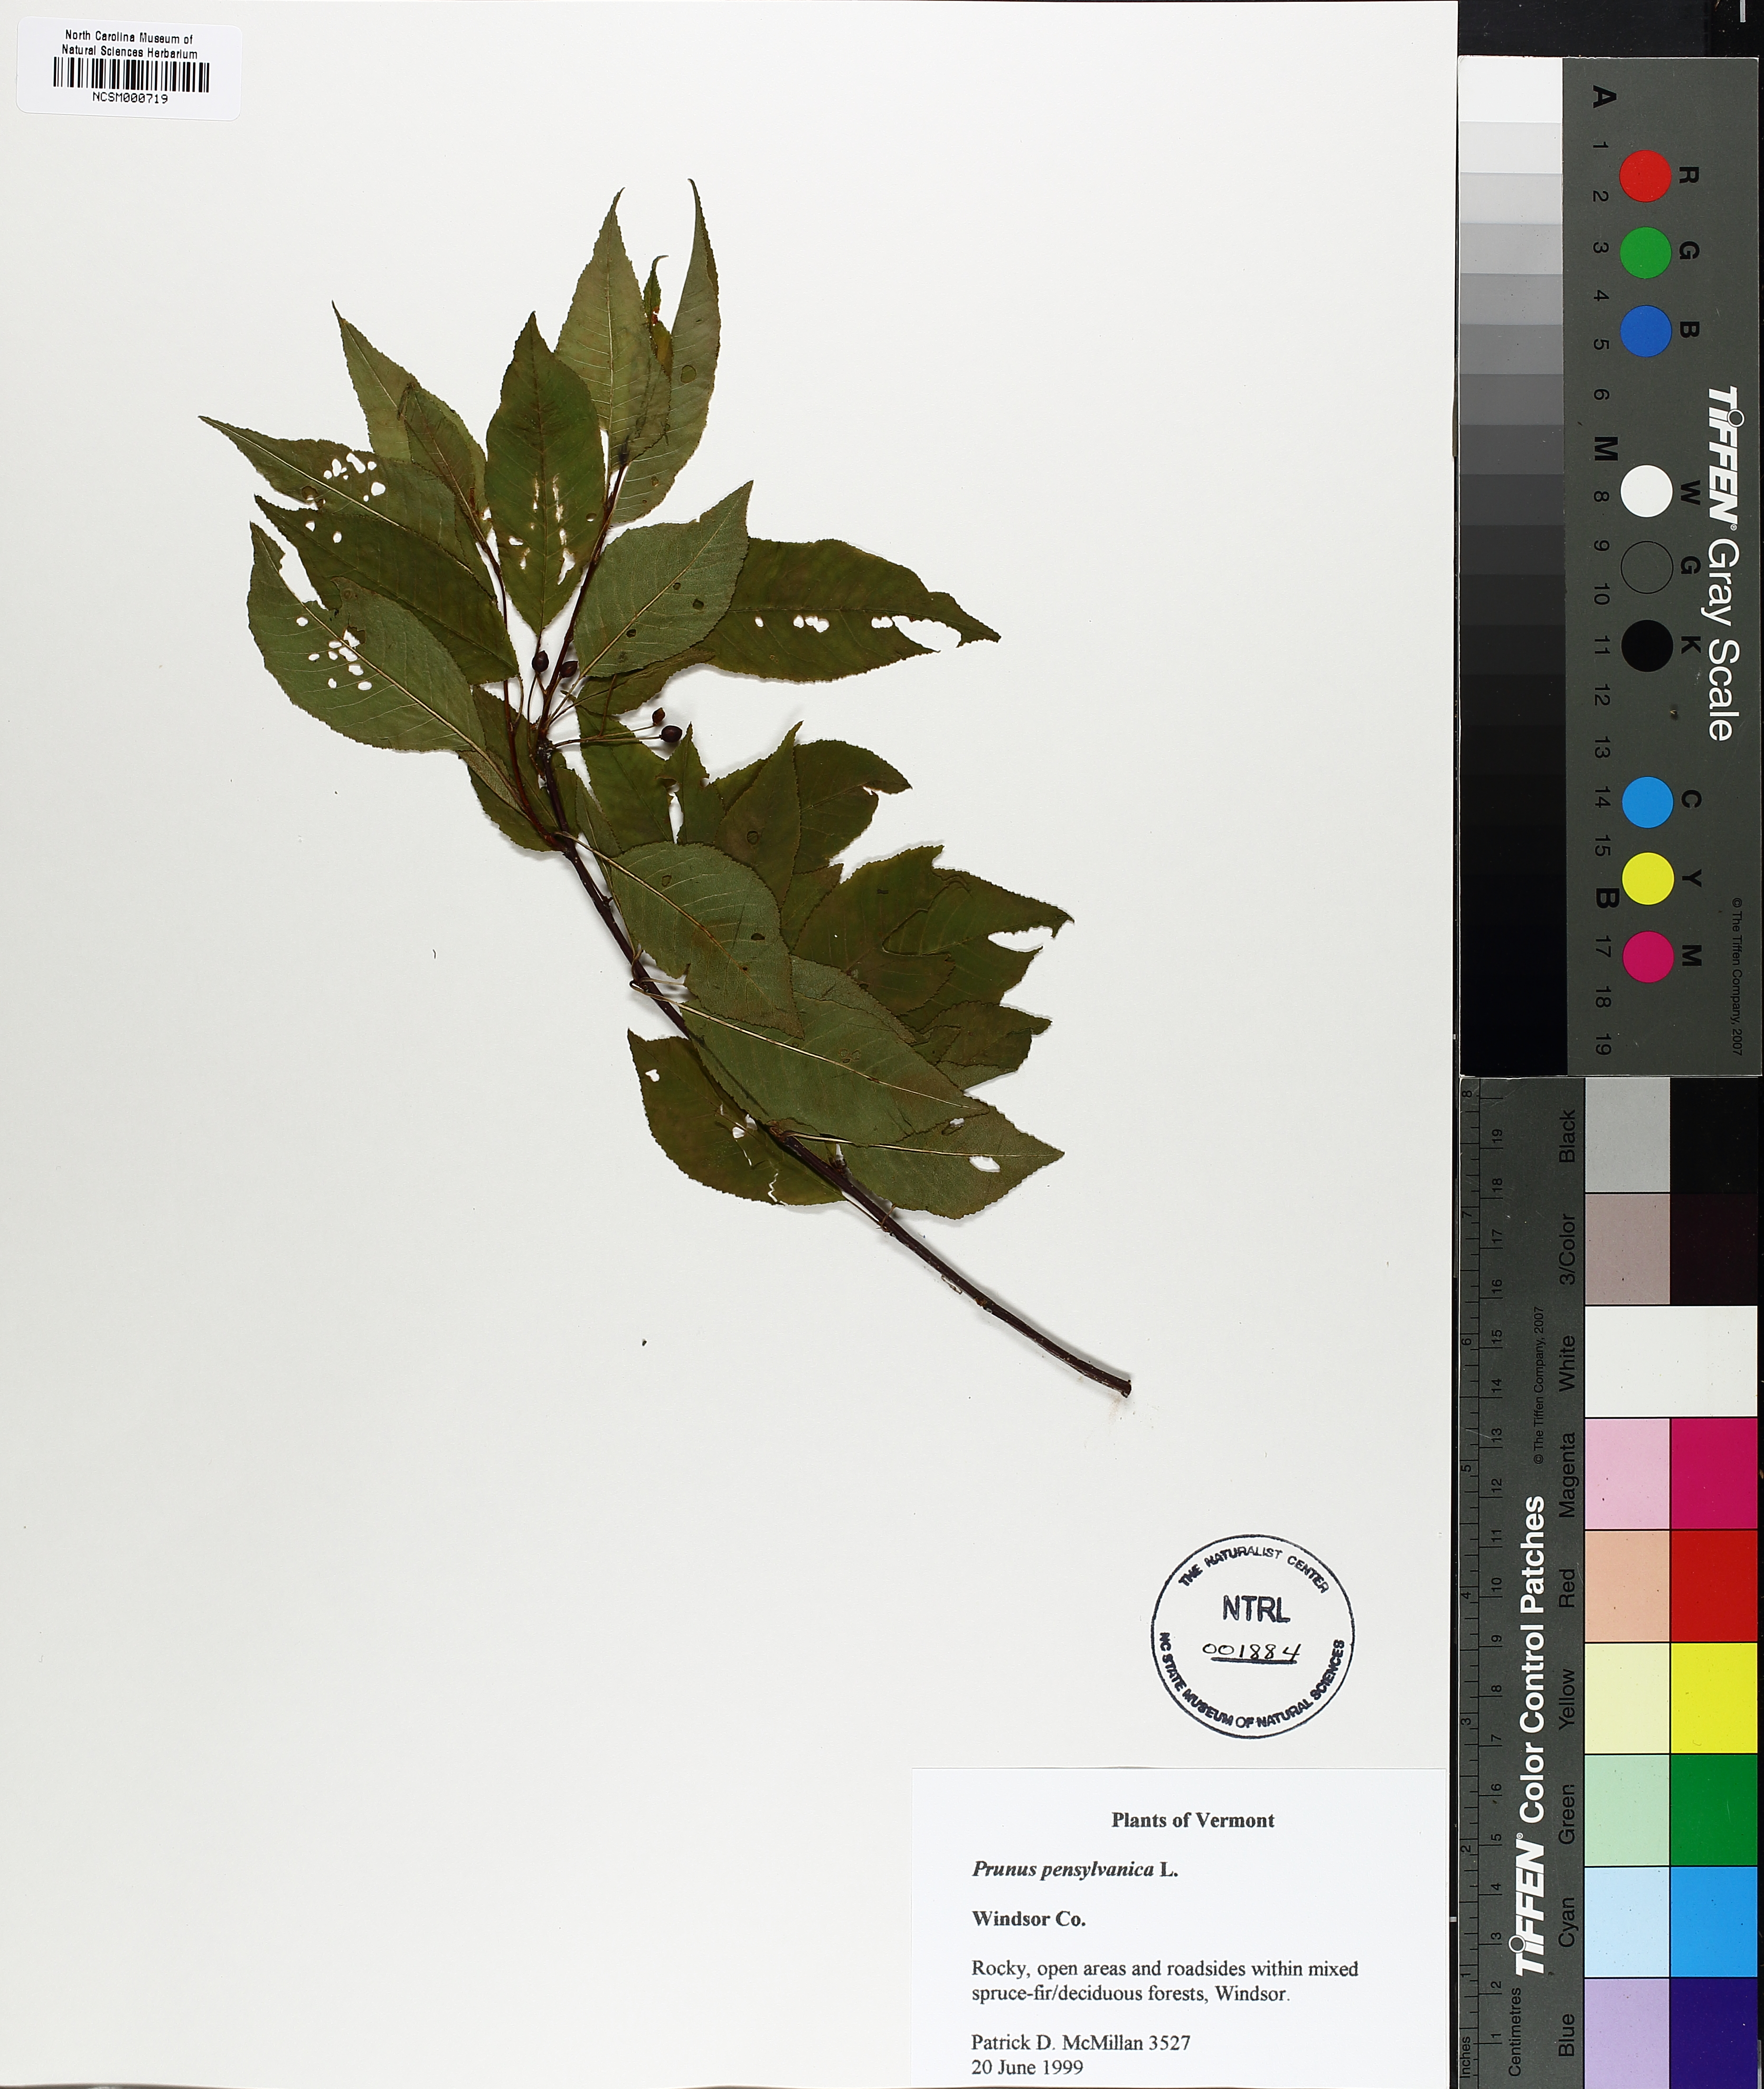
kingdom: Plantae
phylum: Tracheophyta
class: Magnoliopsida
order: Rosales
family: Rosaceae
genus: Prunus
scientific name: Prunus pensylvanica
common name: Pin cherry
